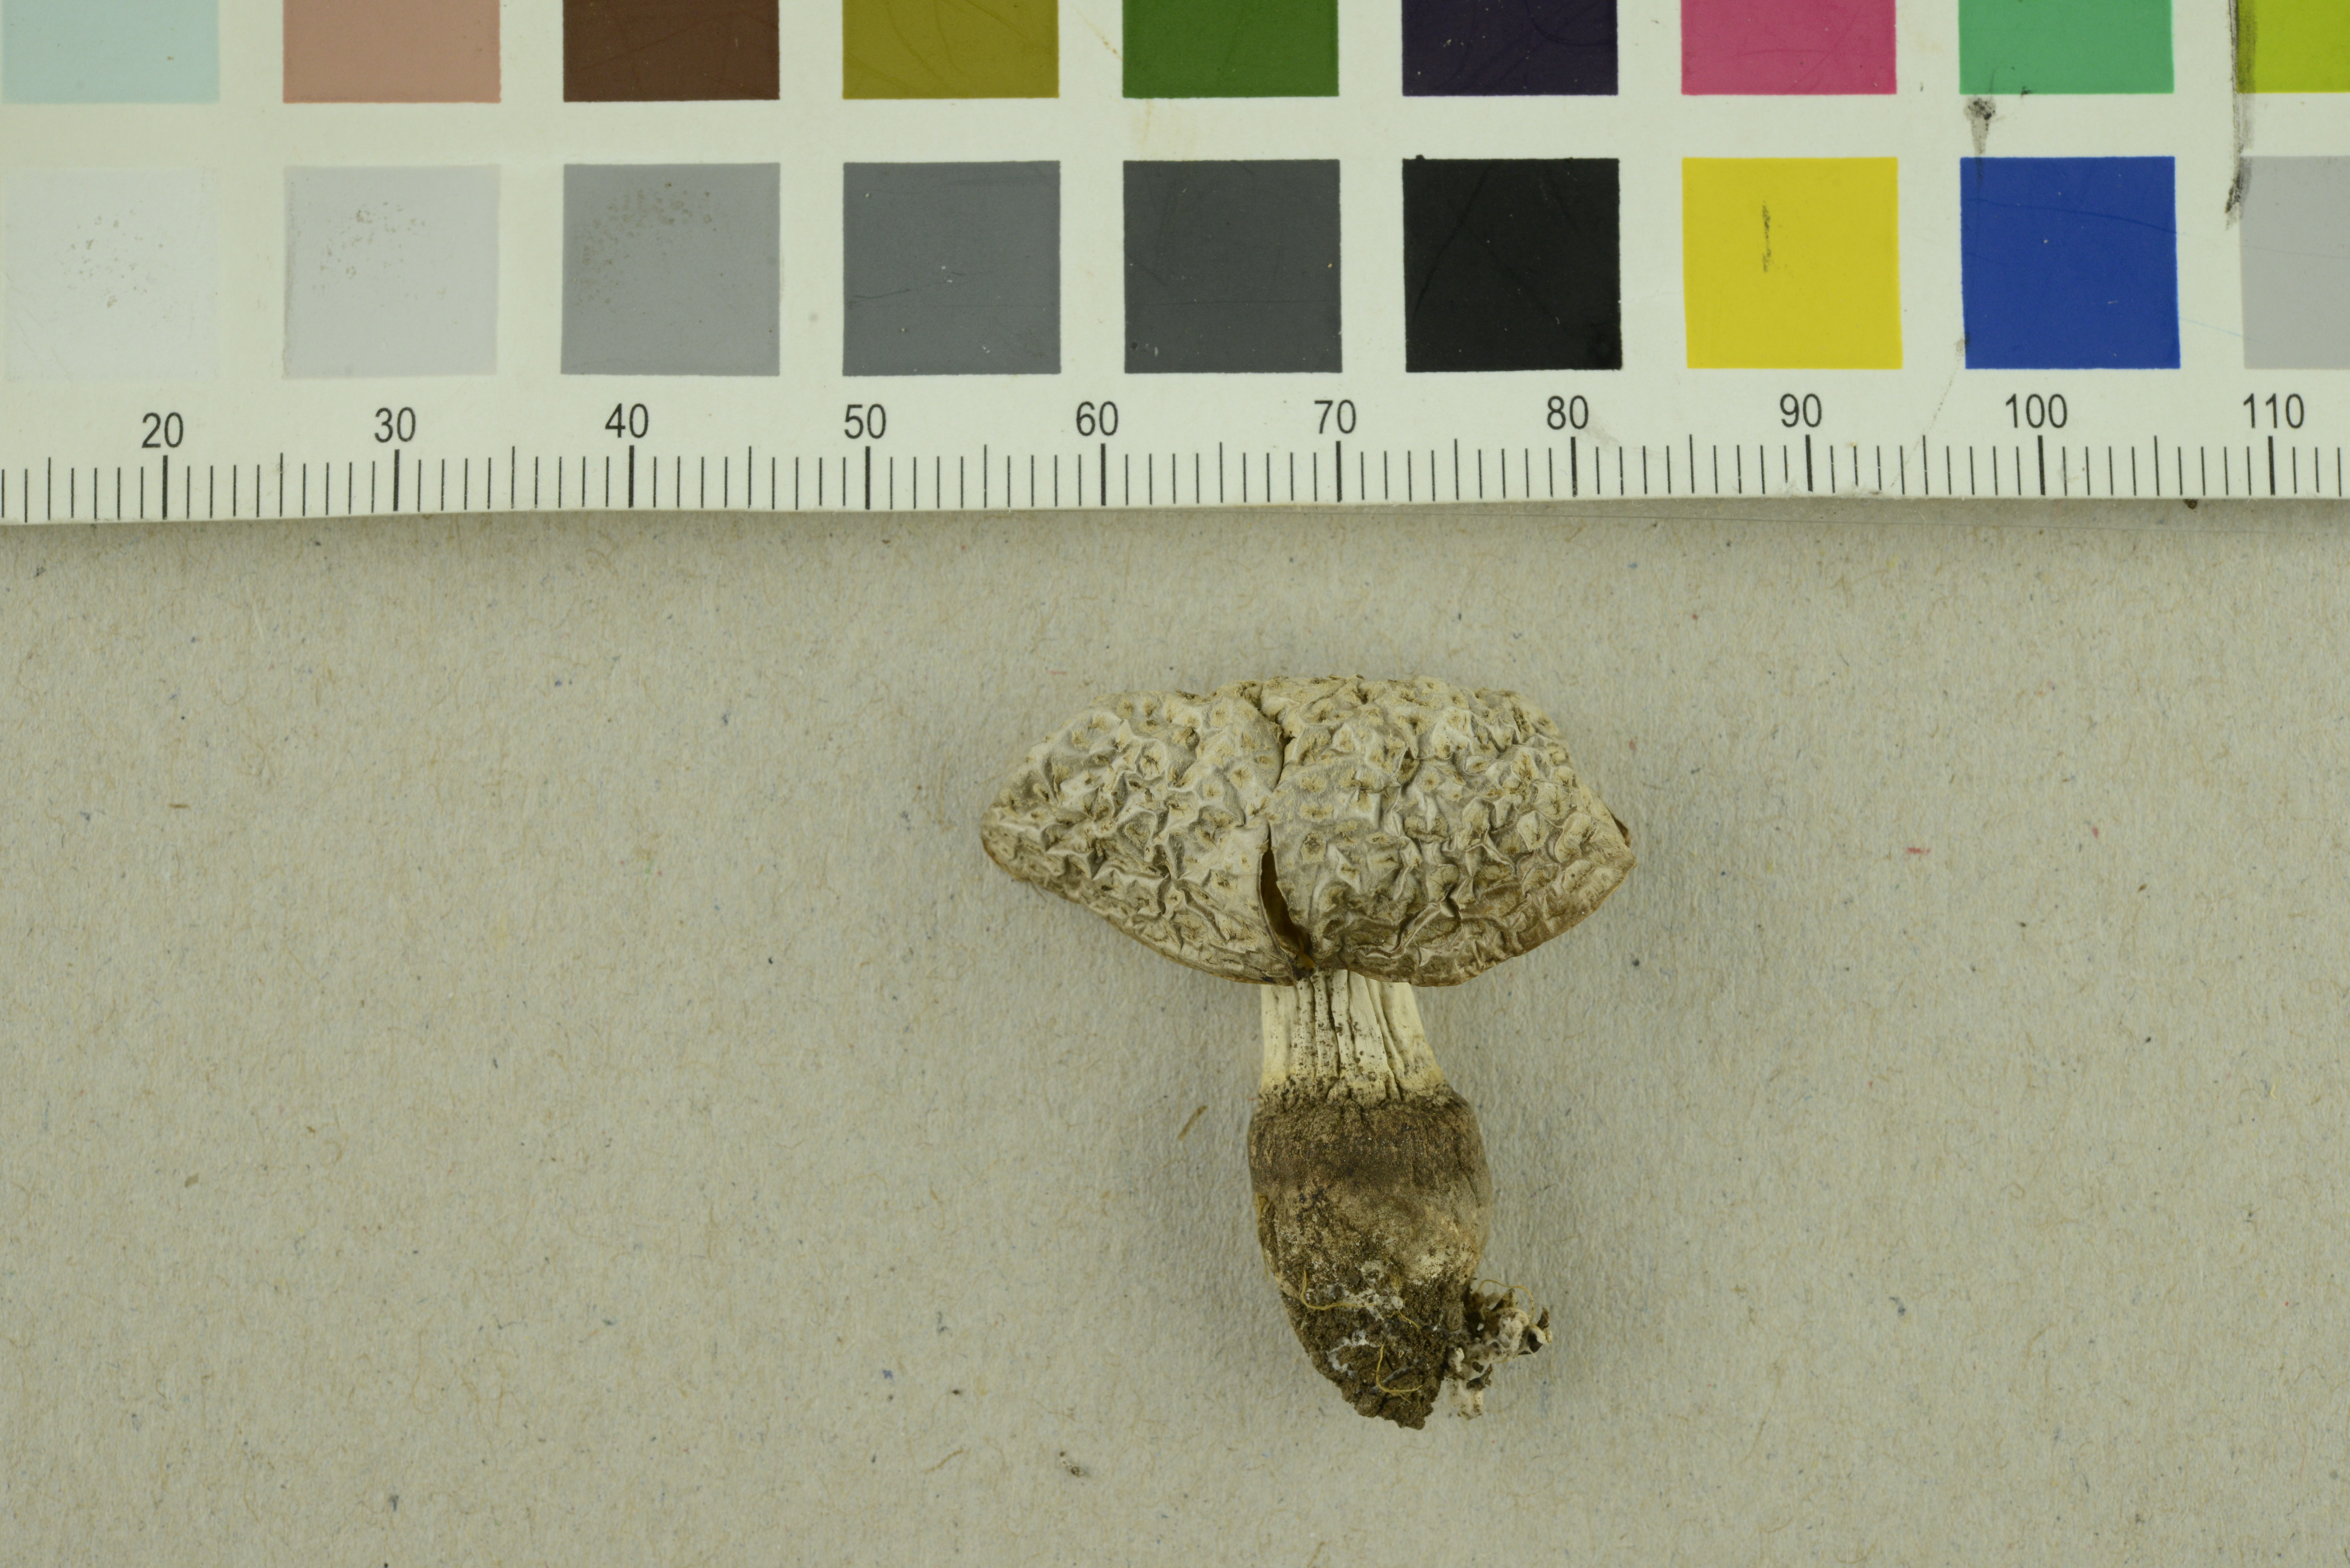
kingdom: Fungi
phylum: Basidiomycota
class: Agaricomycetes
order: Agaricales
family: Agaricaceae
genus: Echinoderma
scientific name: Echinoderma
